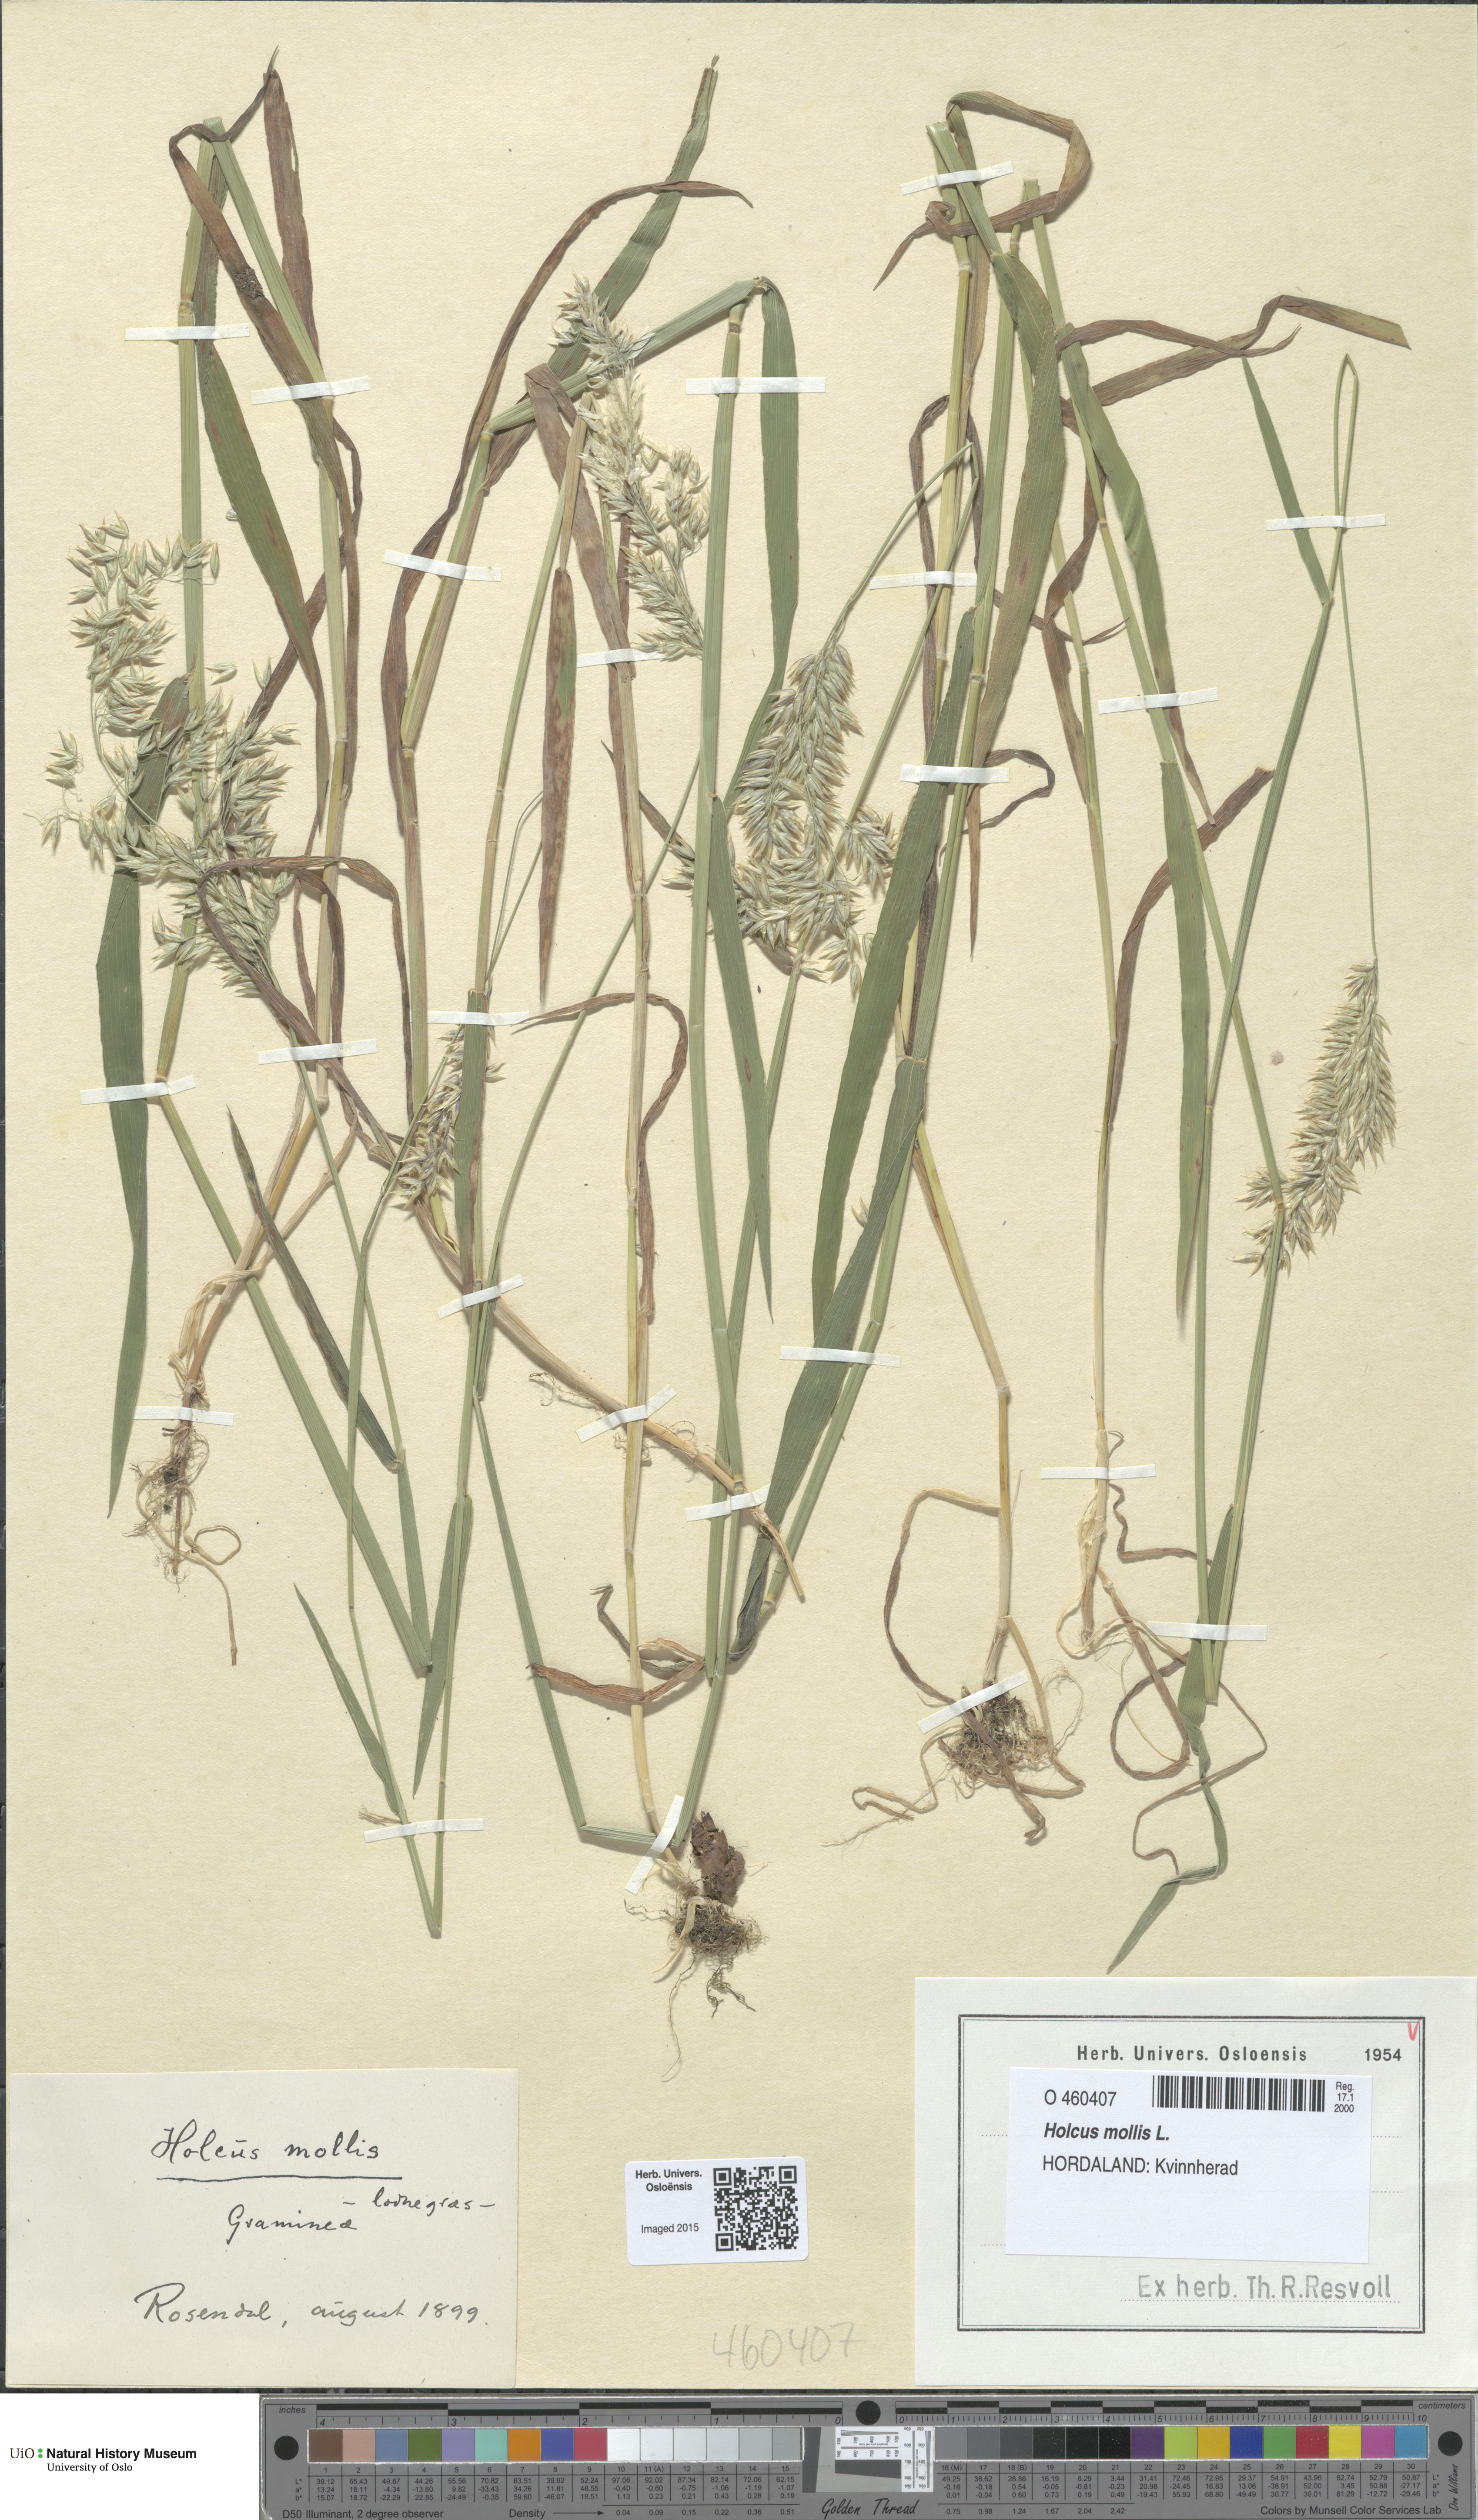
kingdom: Plantae
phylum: Tracheophyta
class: Liliopsida
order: Poales
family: Poaceae
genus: Holcus
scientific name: Holcus mollis
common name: Creeping velvetgrass
